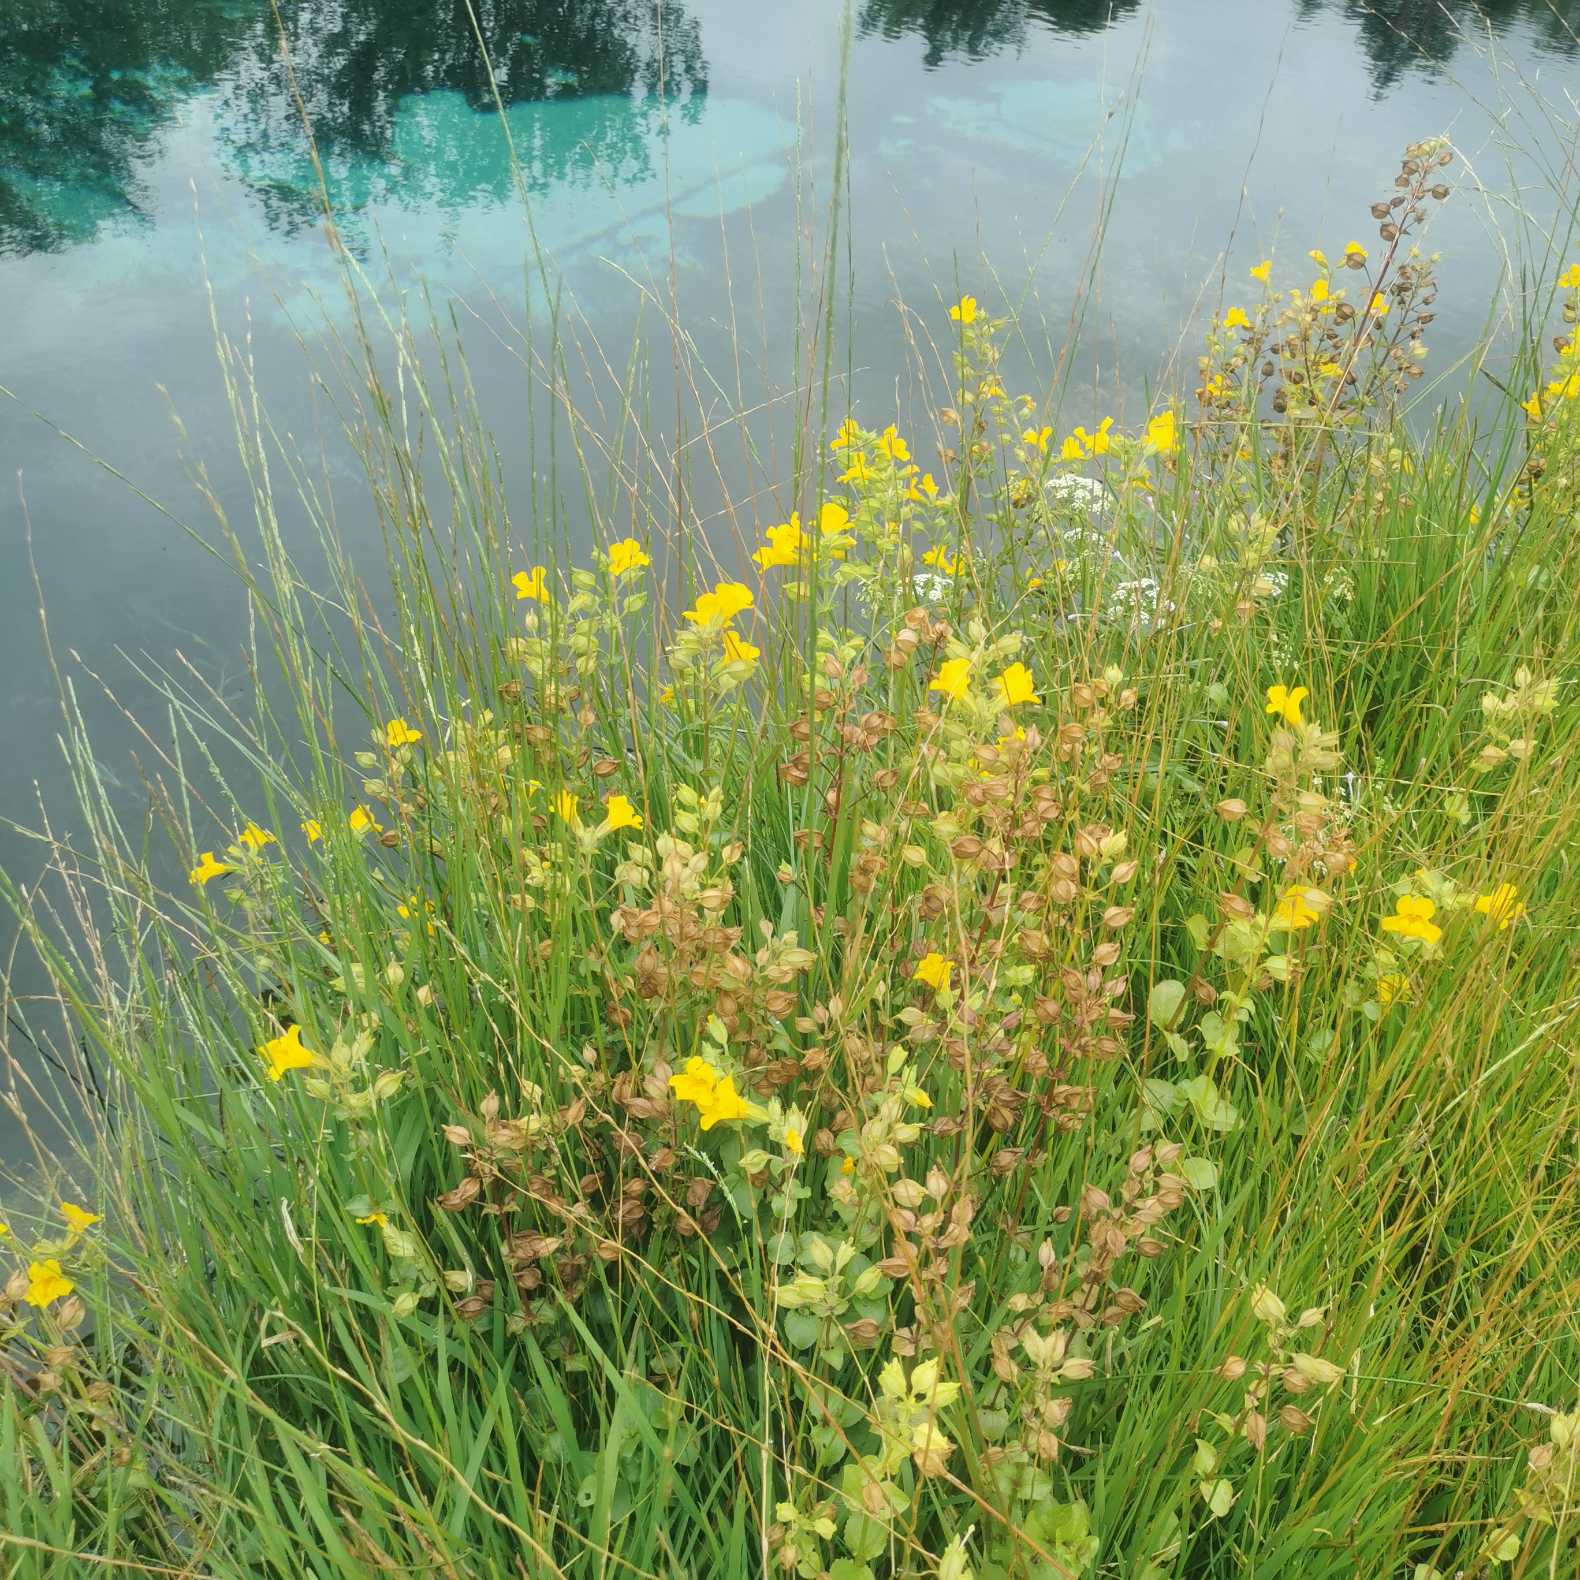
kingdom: Plantae
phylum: Tracheophyta
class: Magnoliopsida
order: Lamiales
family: Phrymaceae
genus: Erythranthe
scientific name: Erythranthe guttata
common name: Abeblomst
